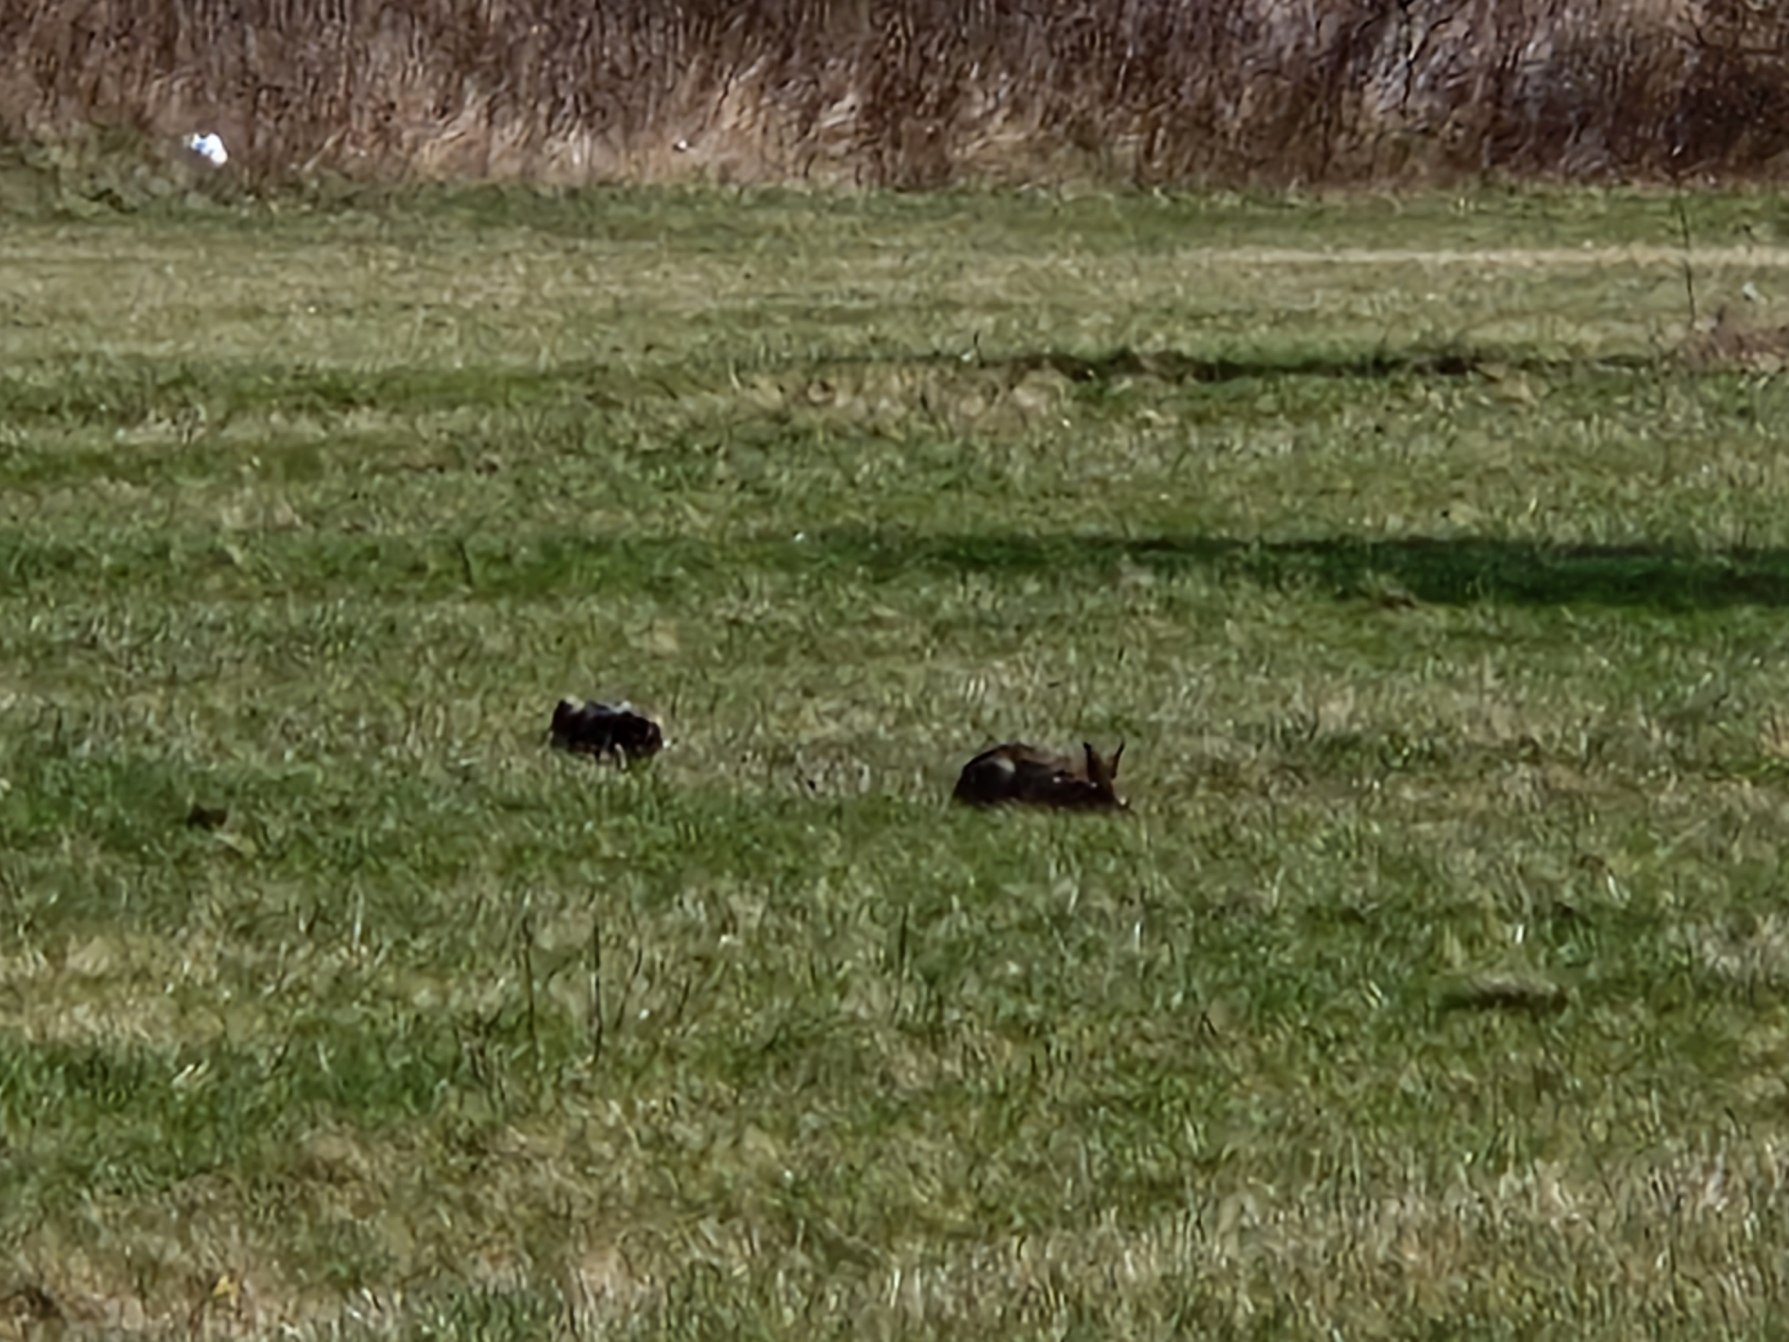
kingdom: Animalia
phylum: Chordata
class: Mammalia
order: Lagomorpha
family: Leporidae
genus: Lepus
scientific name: Lepus europaeus
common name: Hare
